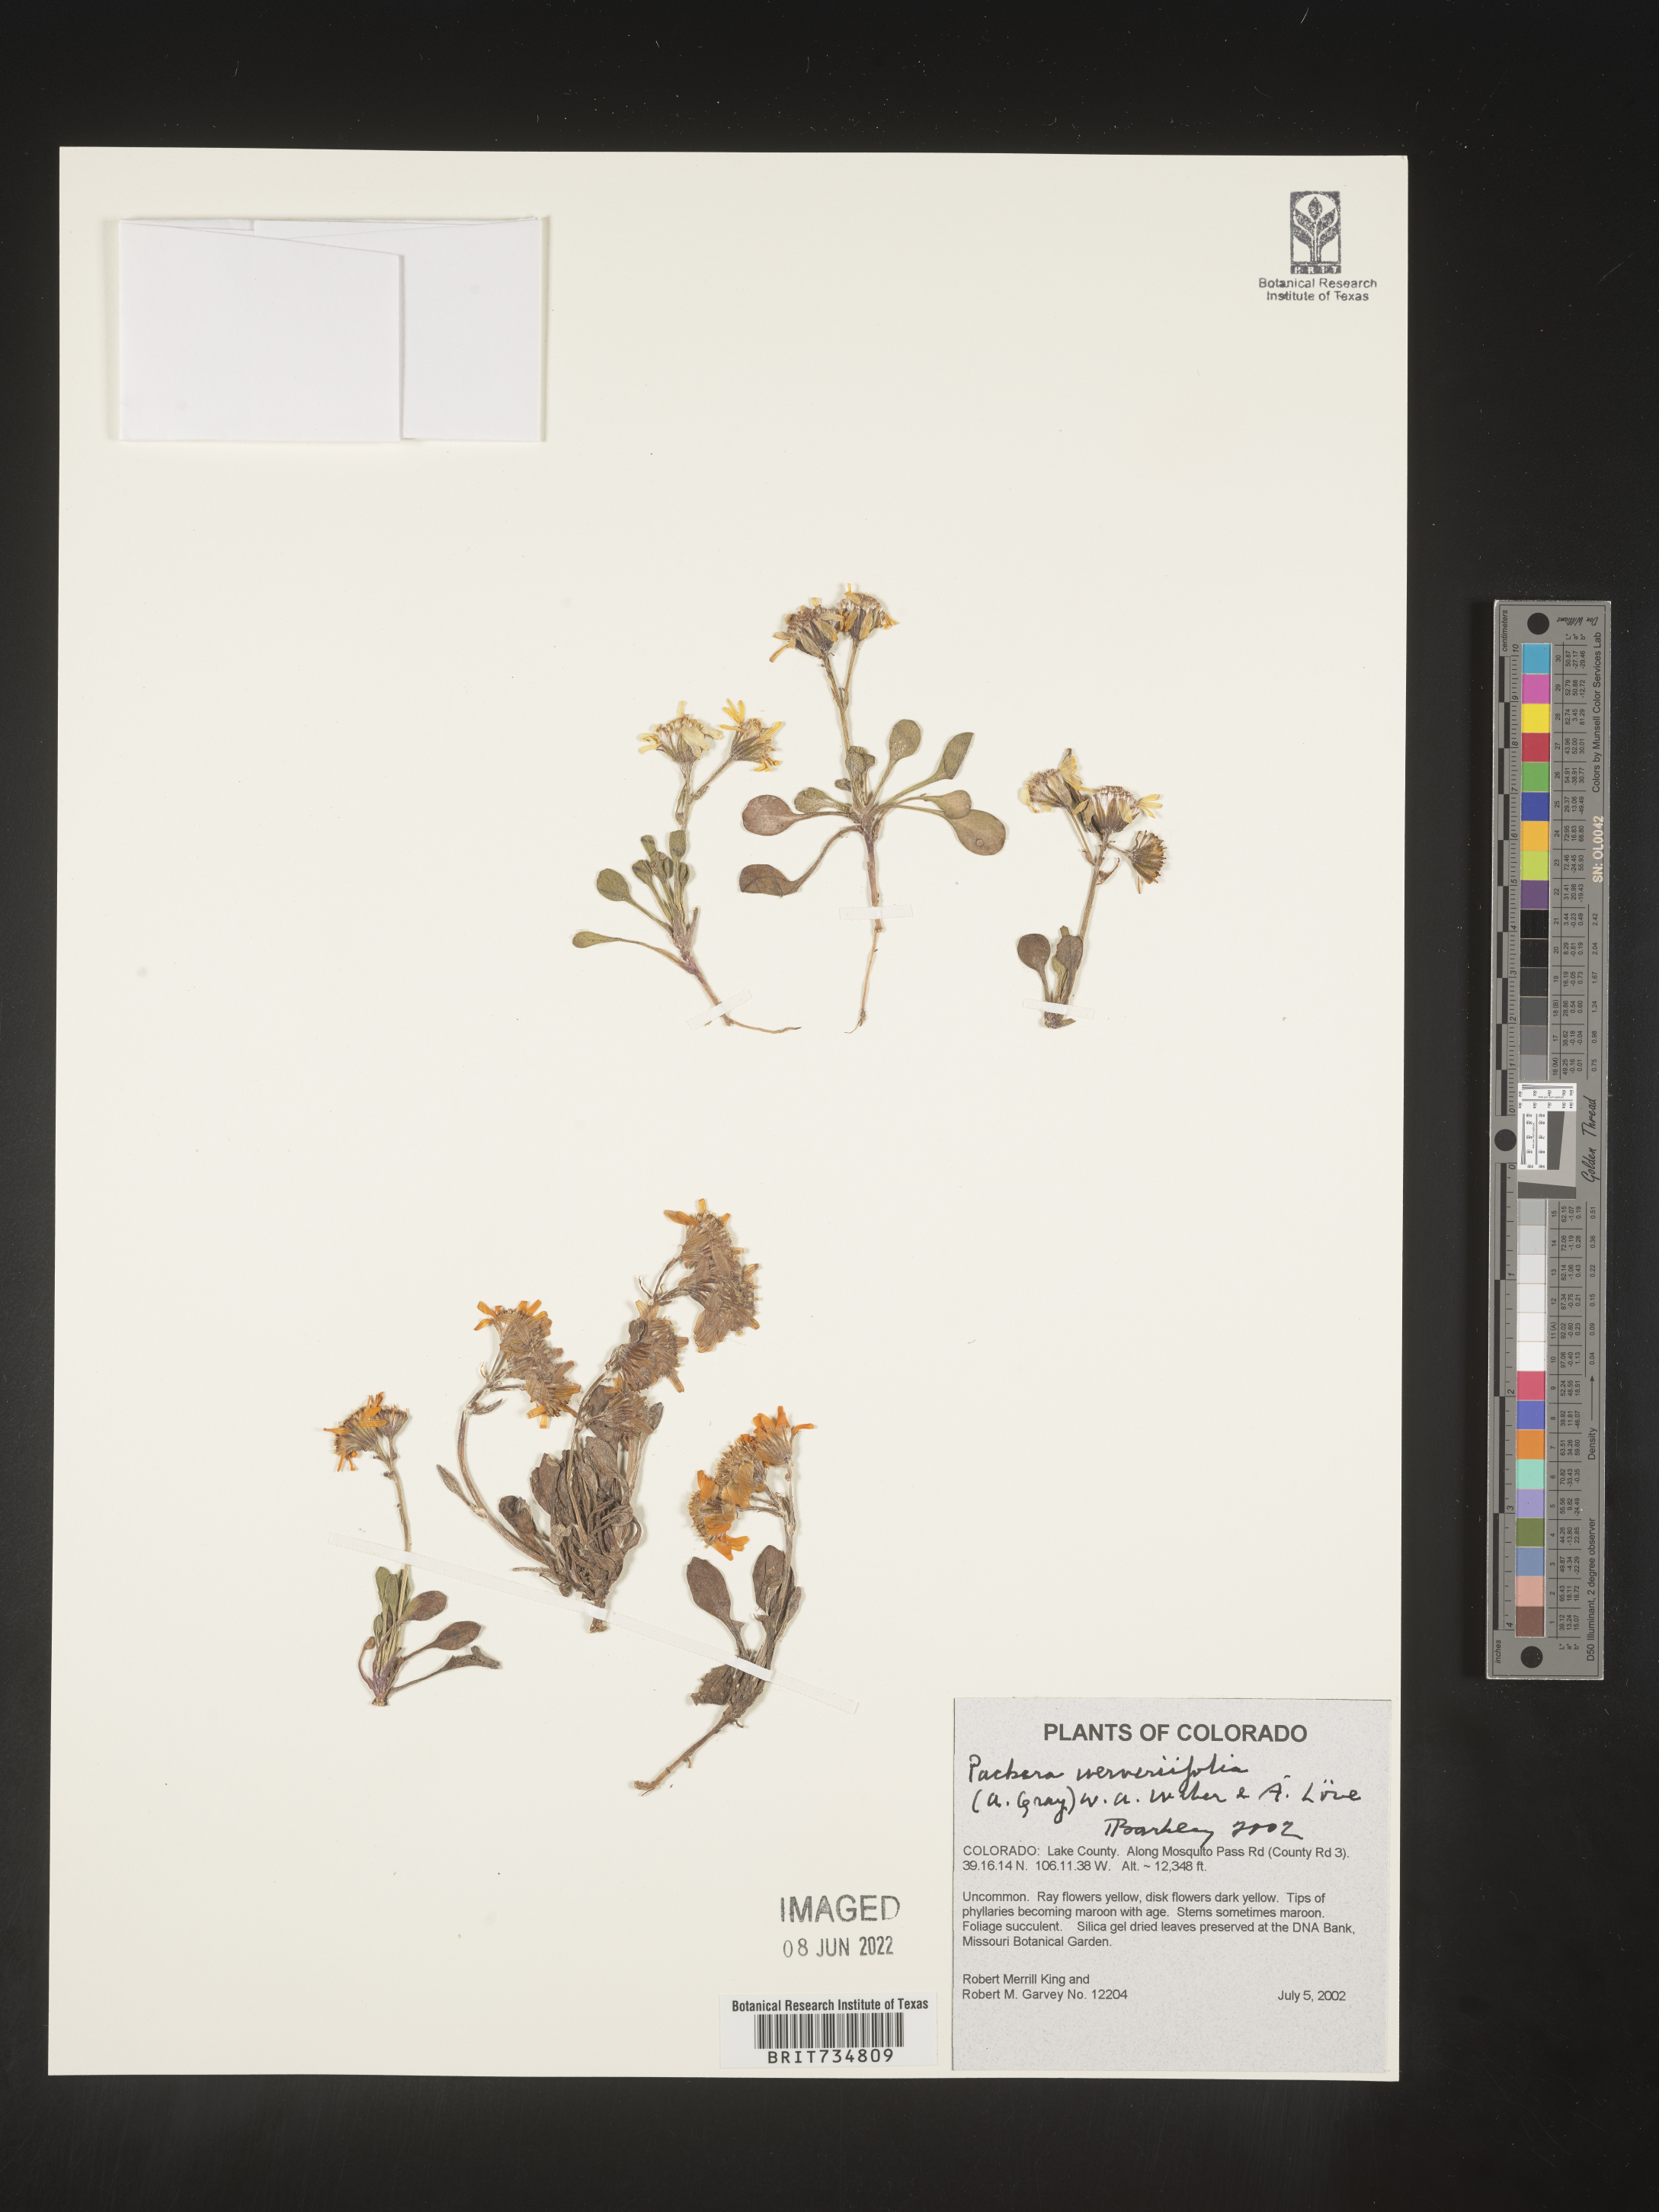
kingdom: Plantae
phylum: Tracheophyta
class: Magnoliopsida
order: Asterales
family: Asteraceae
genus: Packera
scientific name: Packera werneriifolia
